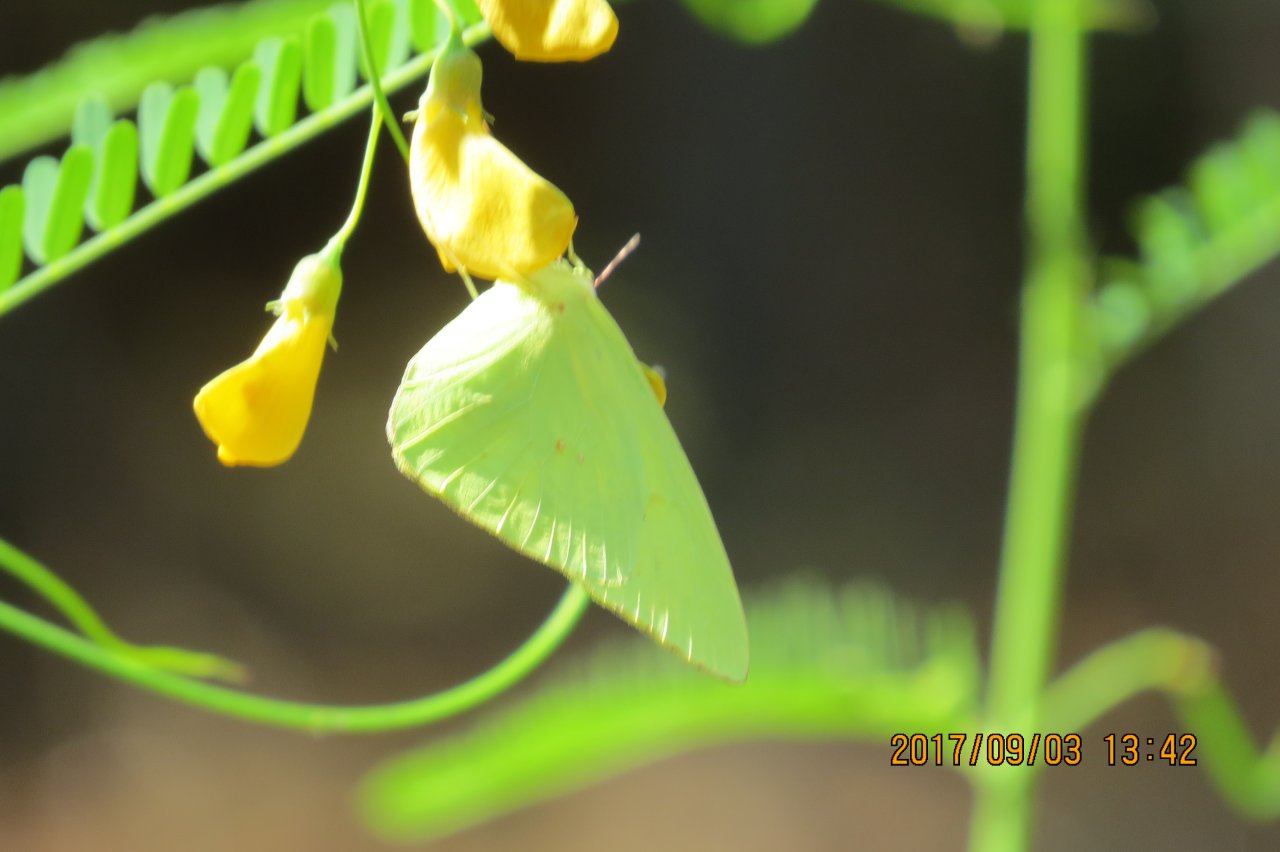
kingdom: Animalia
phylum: Arthropoda
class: Insecta
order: Lepidoptera
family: Pieridae
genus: Phoebis
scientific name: Phoebis sennae
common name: Cloudless Sulphur
